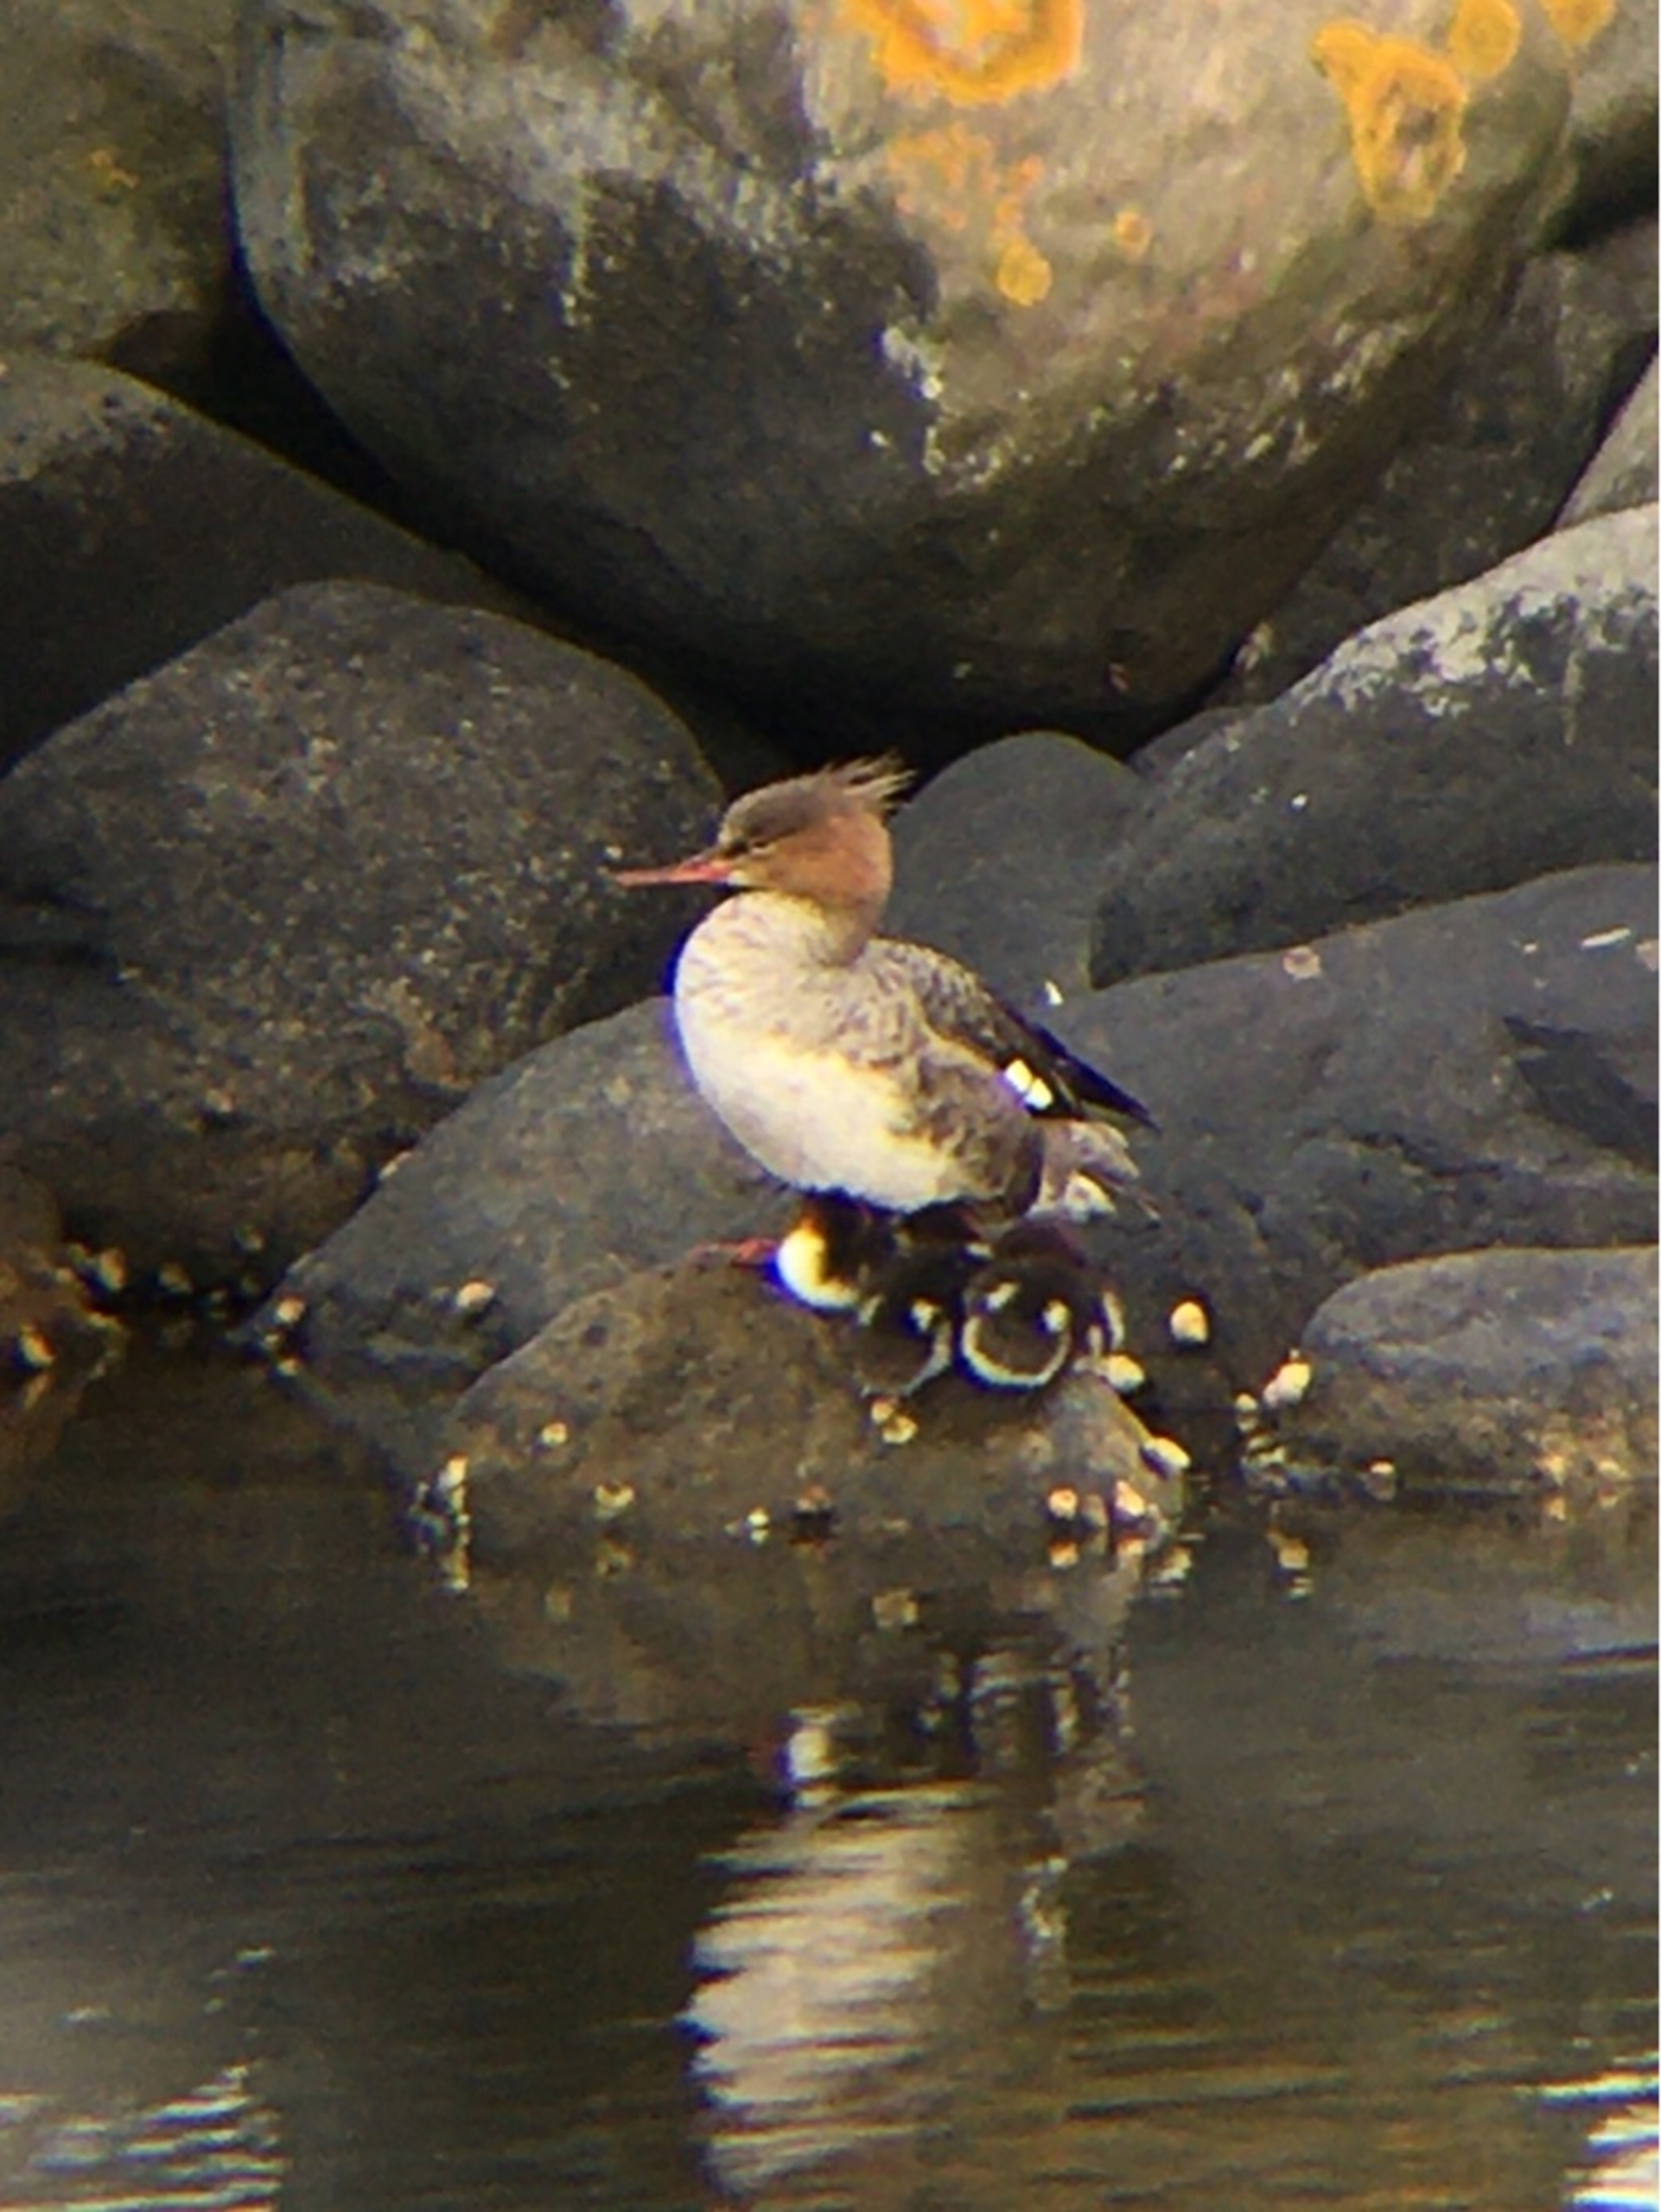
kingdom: Animalia
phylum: Chordata
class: Aves
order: Anseriformes
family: Anatidae
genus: Mergus
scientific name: Mergus serrator
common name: Toppet skallesluger
